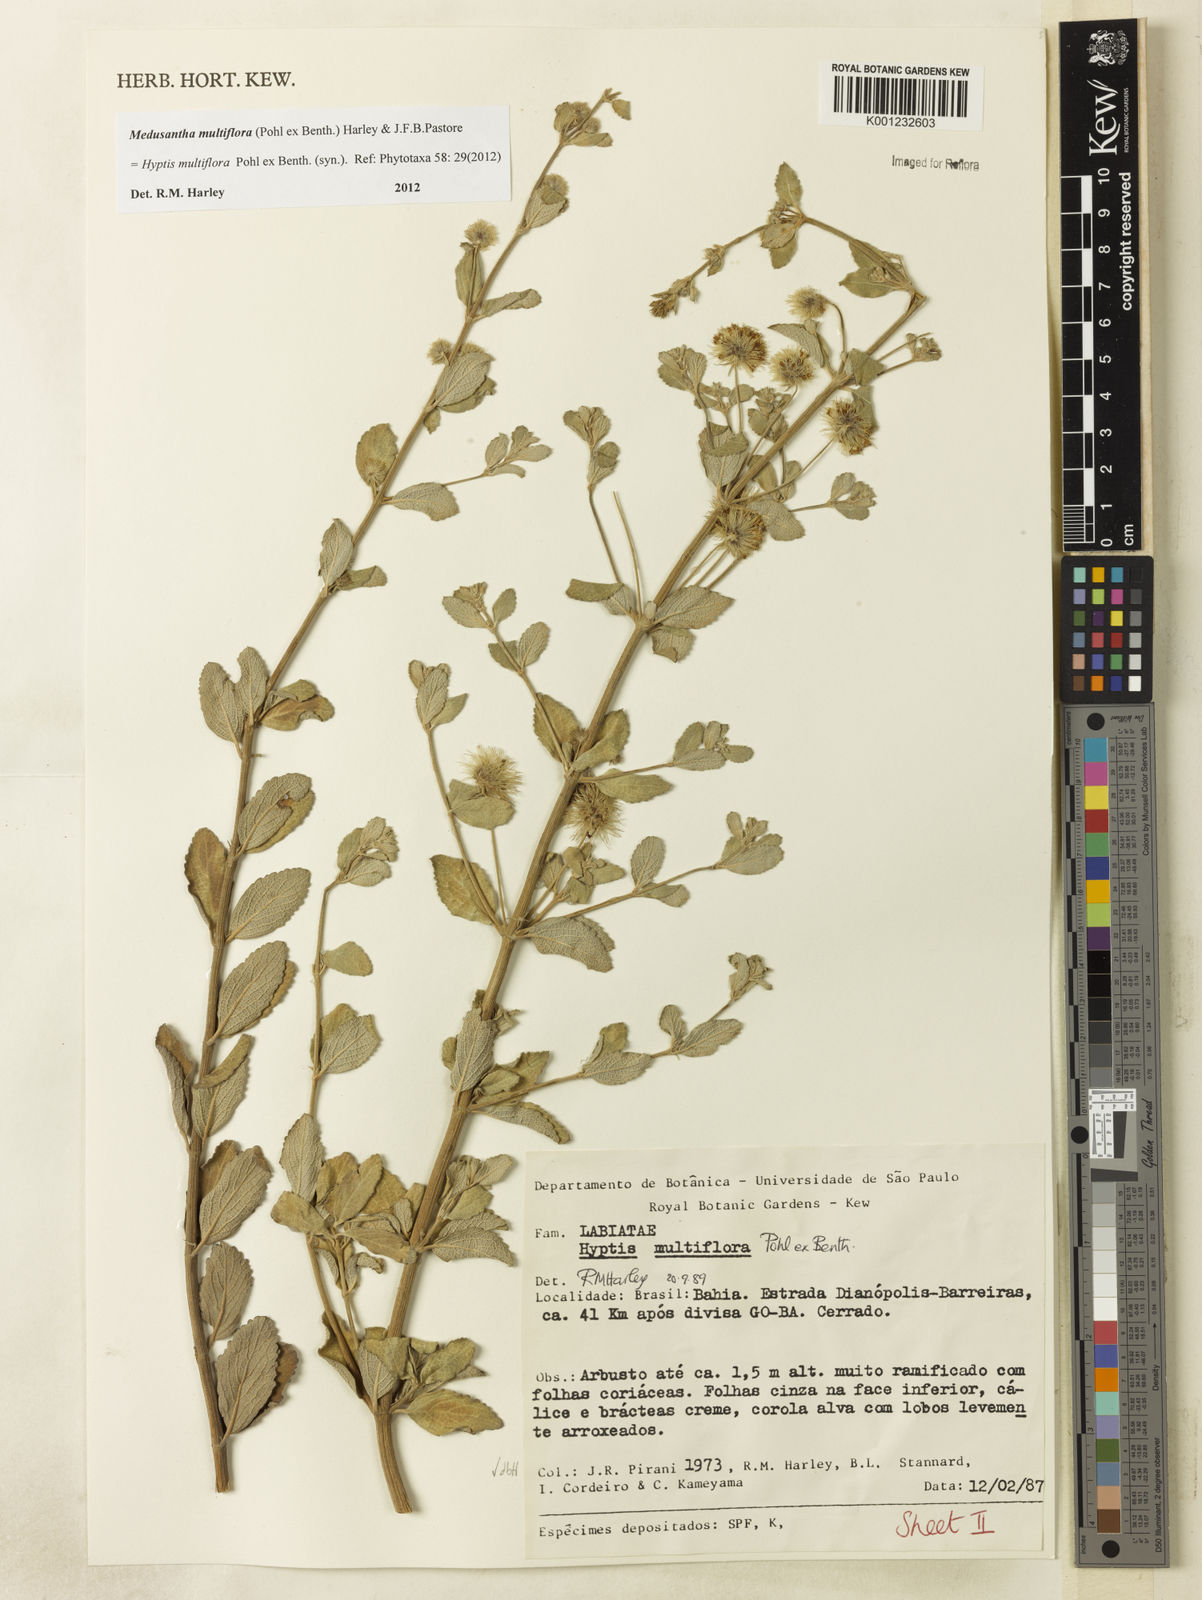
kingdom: Plantae
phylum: Tracheophyta
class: Magnoliopsida
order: Lamiales
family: Lamiaceae
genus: Medusantha
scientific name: Medusantha multiflora
